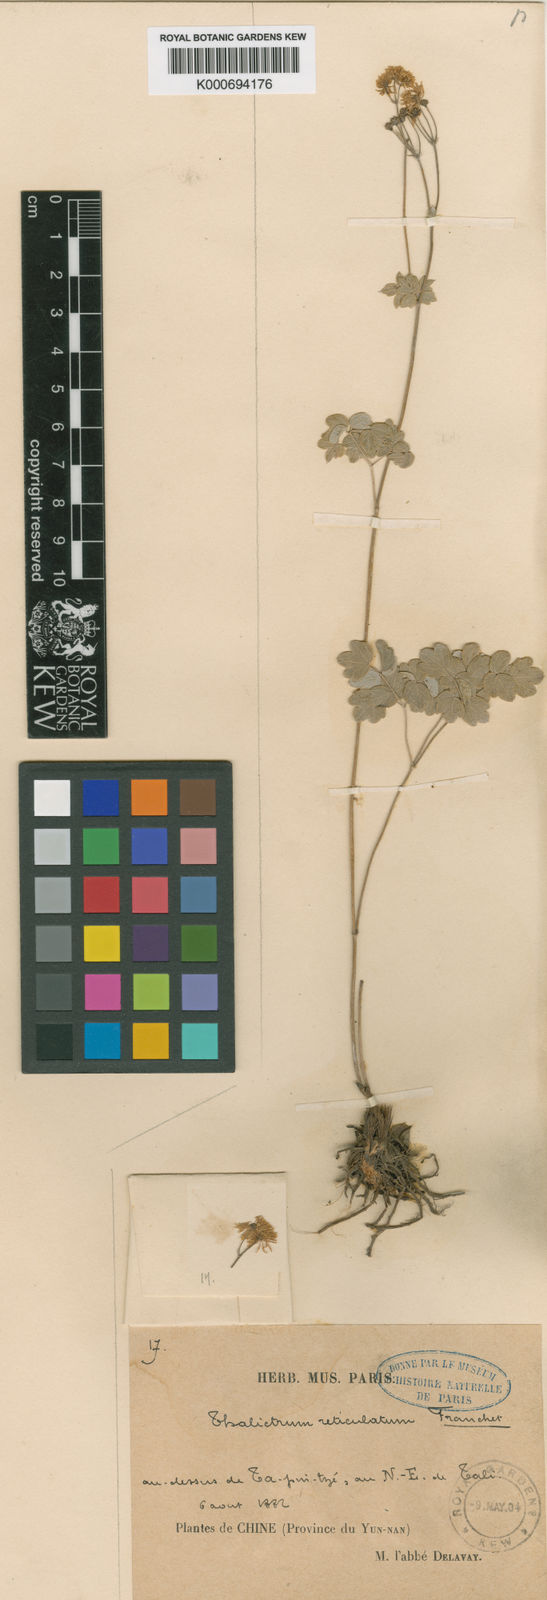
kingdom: Plantae
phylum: Tracheophyta
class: Magnoliopsida
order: Ranunculales
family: Ranunculaceae
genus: Thalictrum
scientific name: Thalictrum reticulatum
